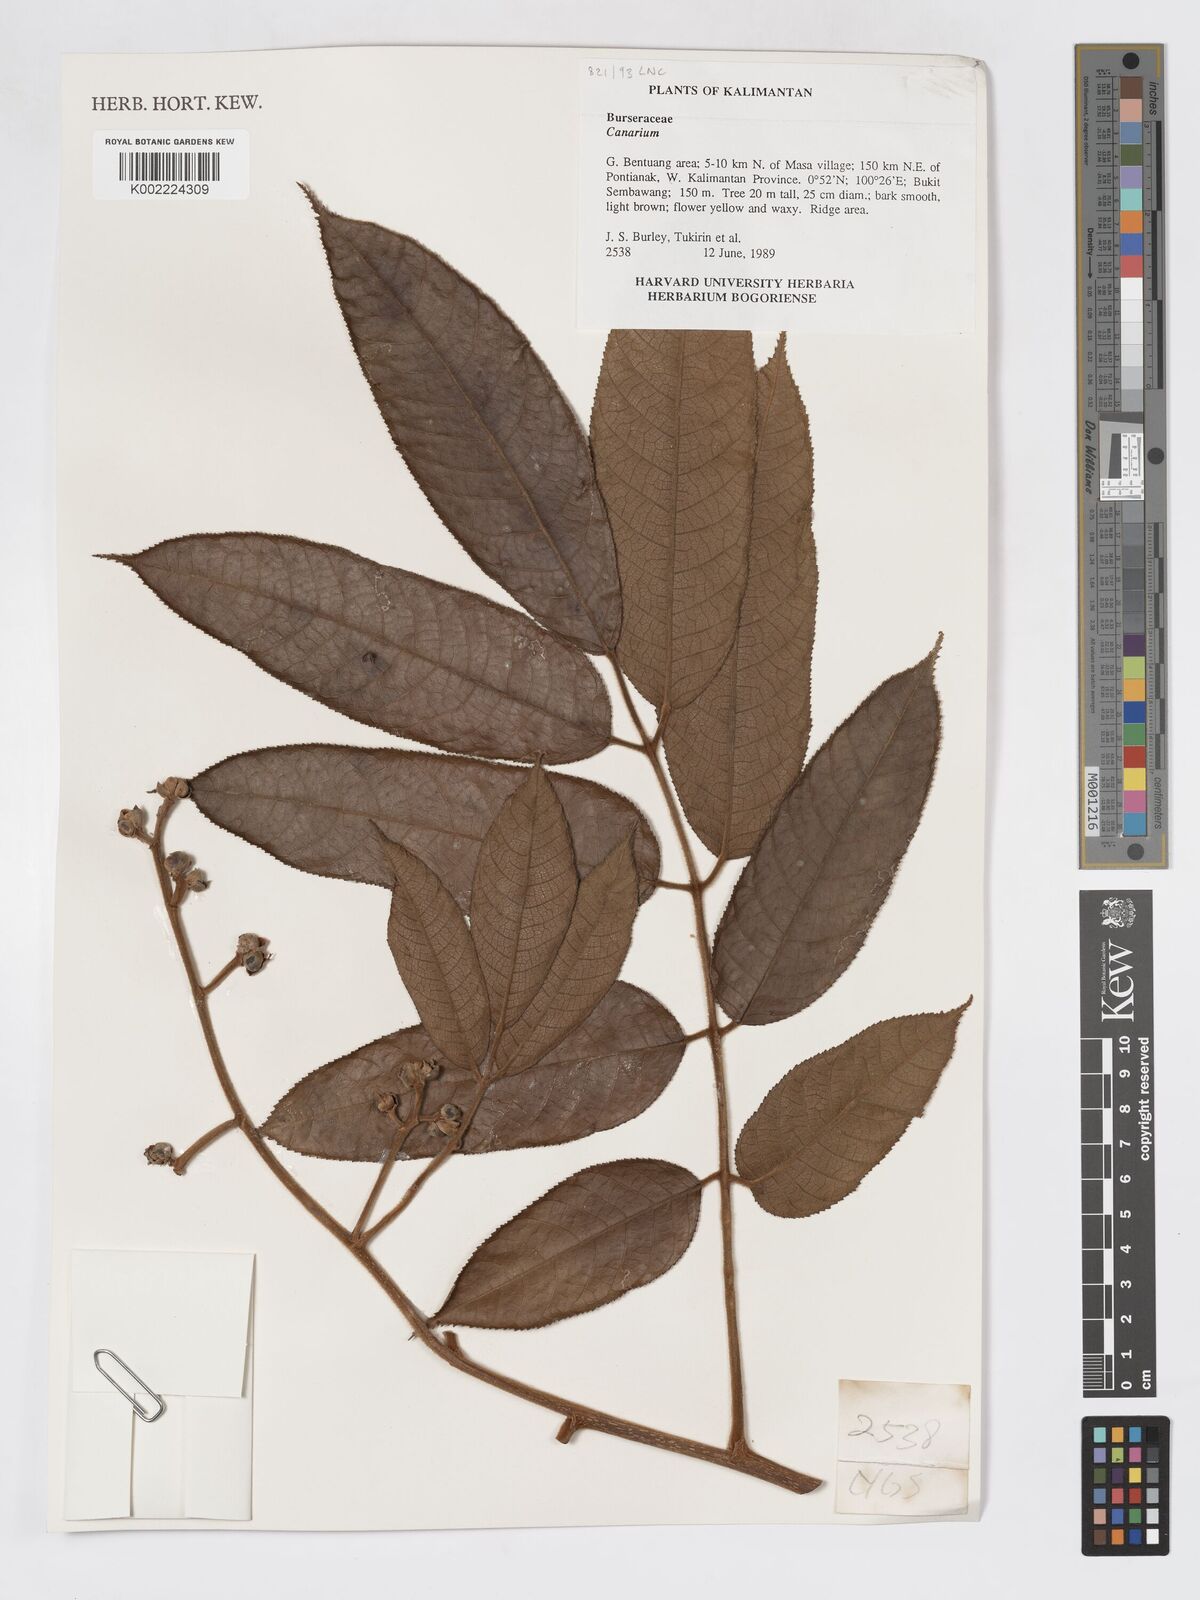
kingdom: Plantae
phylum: Tracheophyta
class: Magnoliopsida
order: Sapindales
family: Burseraceae
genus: Canarium
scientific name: Canarium
